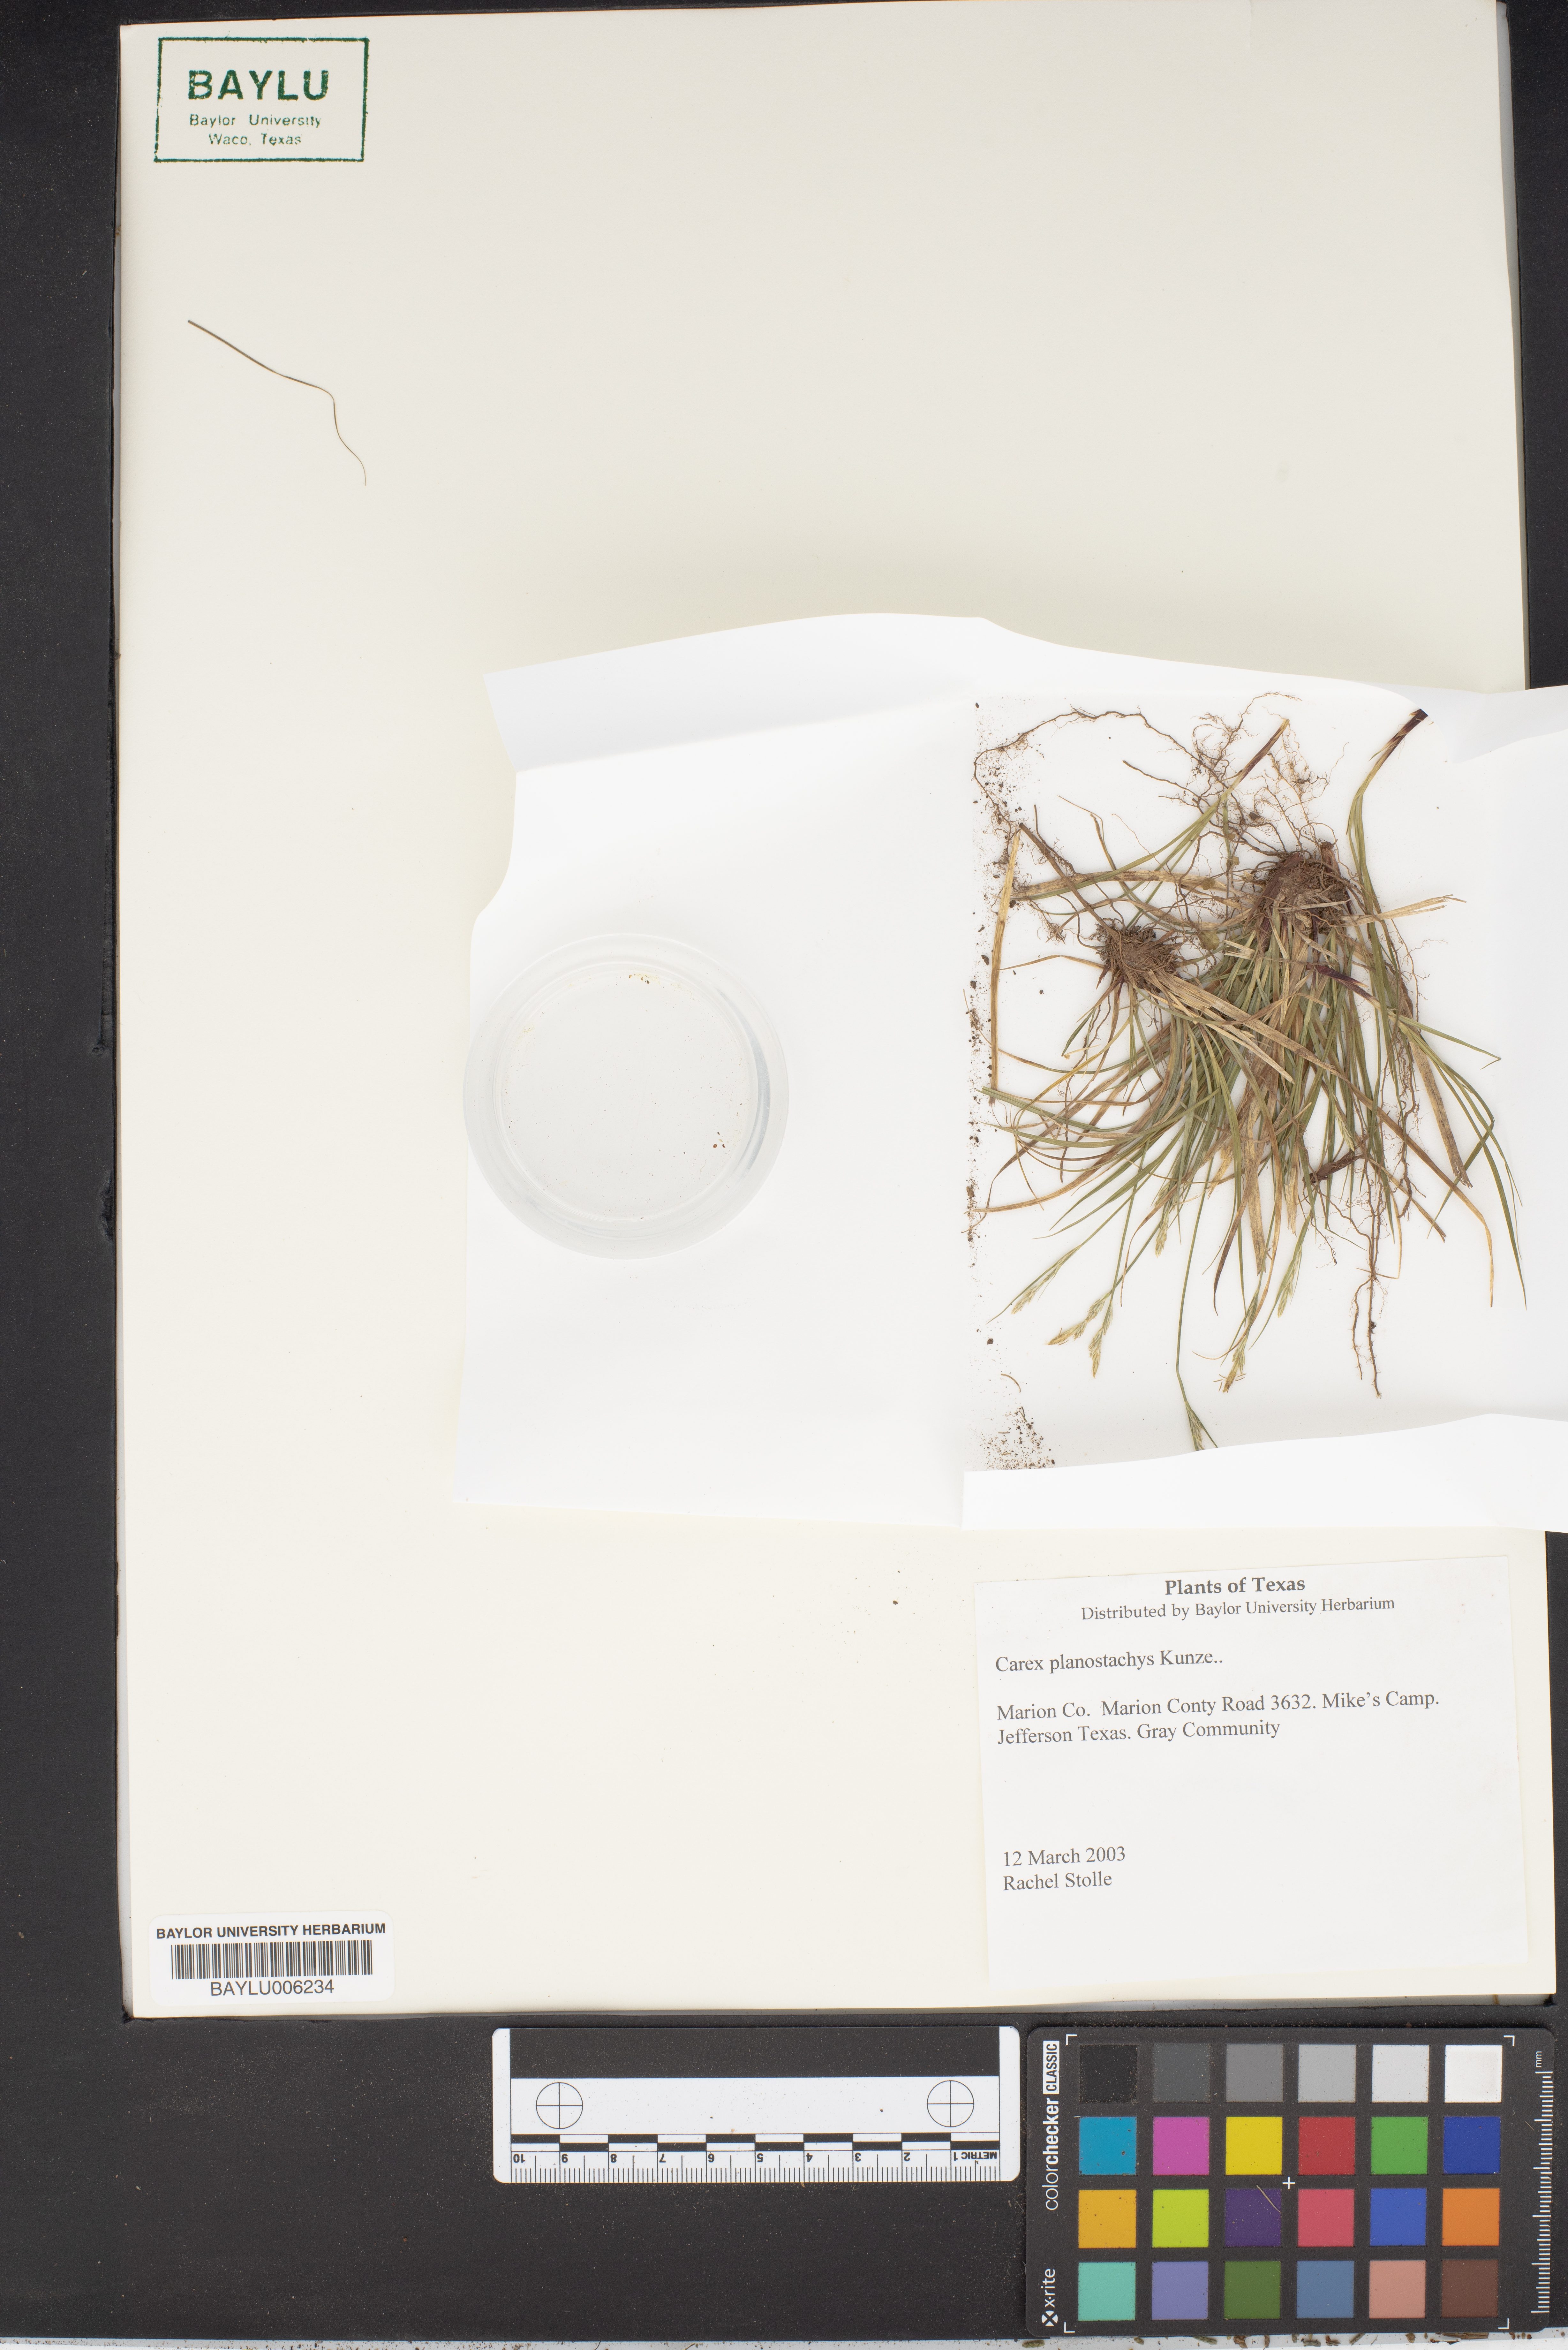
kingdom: Plantae
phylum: Tracheophyta
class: Liliopsida
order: Poales
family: Cyperaceae
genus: Carex
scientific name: Carex planostachys
